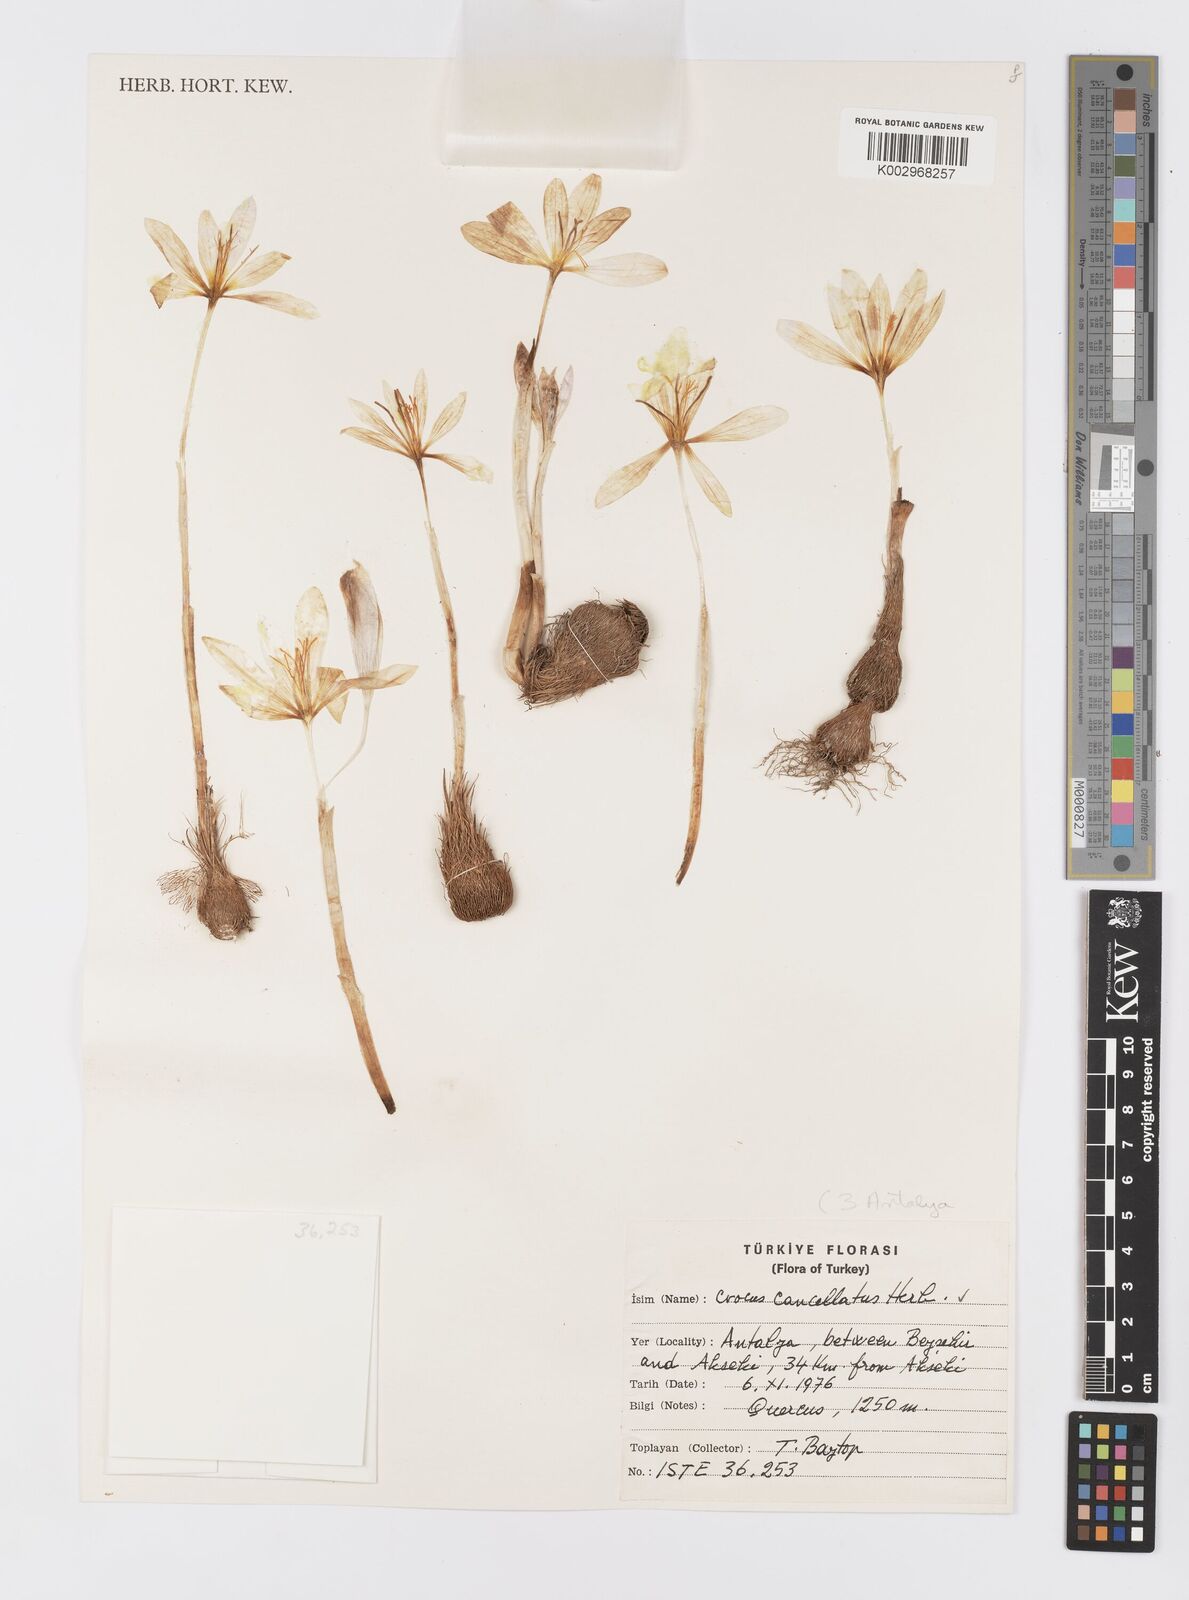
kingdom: Plantae
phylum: Tracheophyta
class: Liliopsida
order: Asparagales
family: Iridaceae
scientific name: Iridaceae
